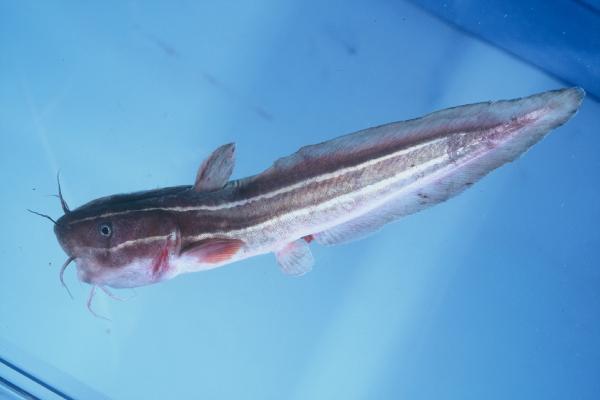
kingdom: Animalia
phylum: Chordata
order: Siluriformes
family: Plotosidae
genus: Plotosus
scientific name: Plotosus lineatus
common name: Striped eel catfish
